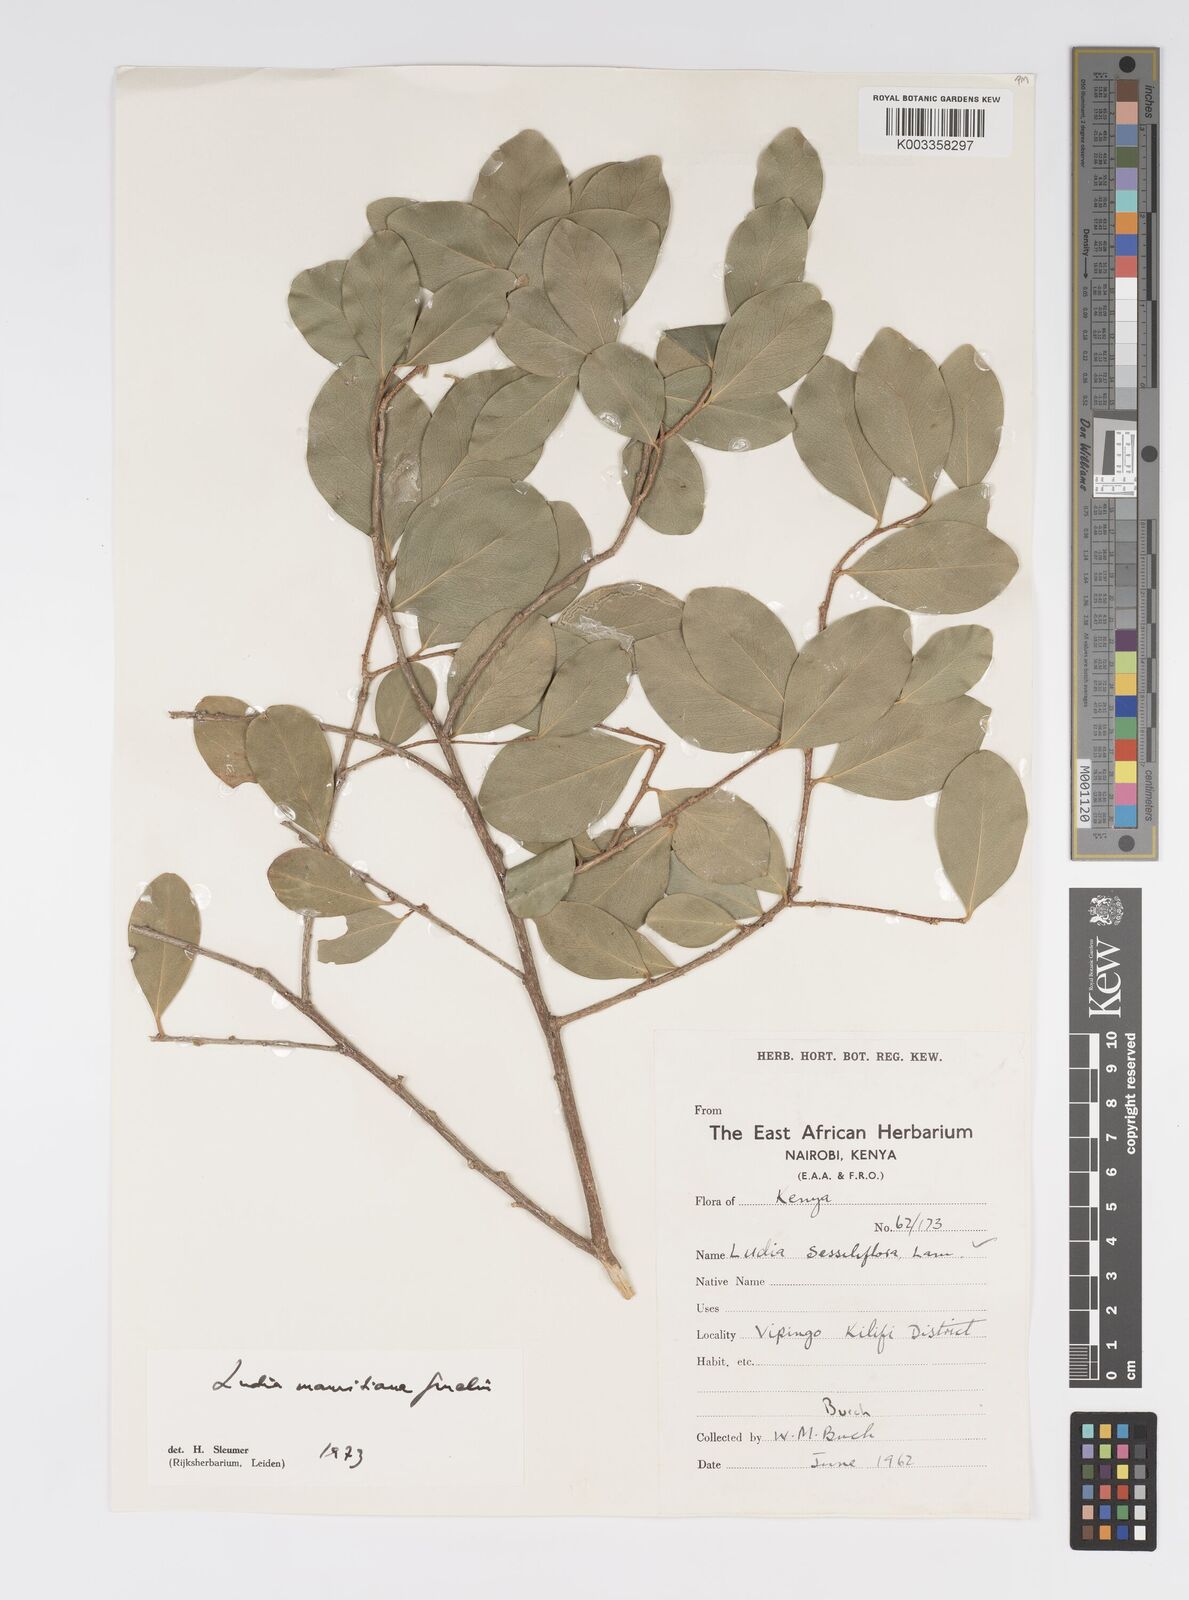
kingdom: Plantae
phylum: Tracheophyta
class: Magnoliopsida
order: Malpighiales
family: Salicaceae
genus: Ludia
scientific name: Ludia mauritiana
